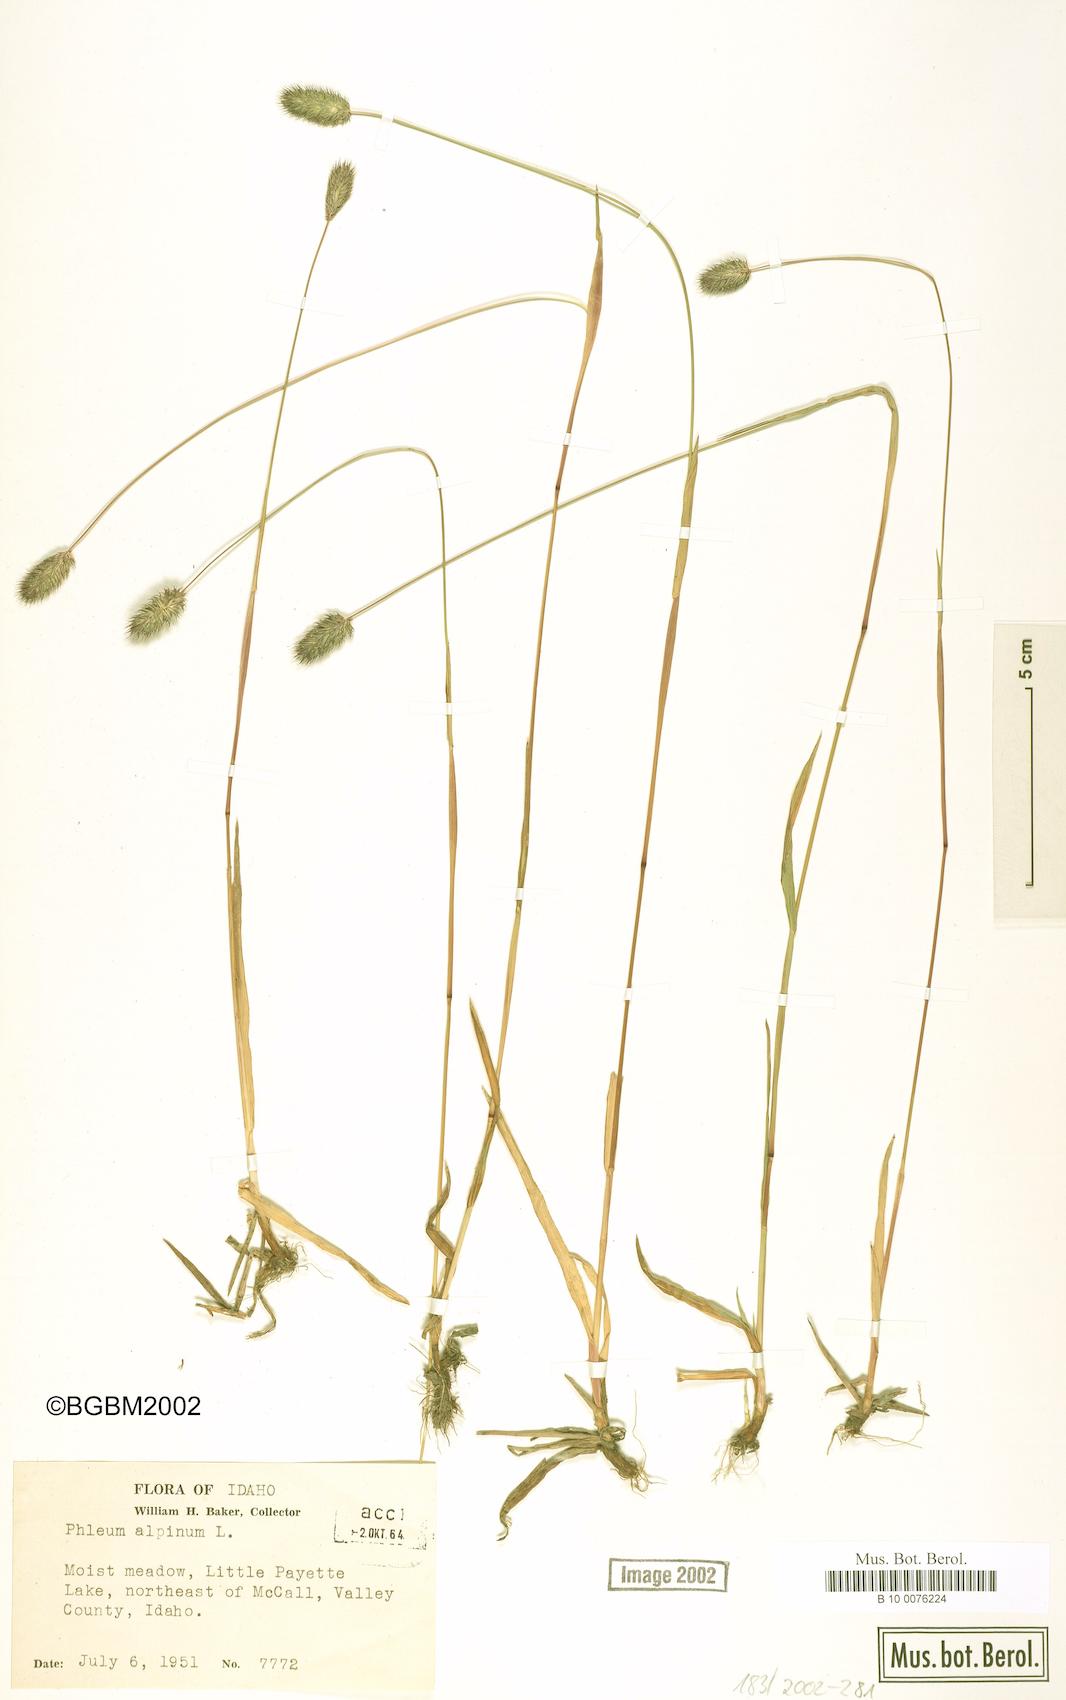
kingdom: Plantae
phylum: Tracheophyta
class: Liliopsida
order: Poales
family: Poaceae
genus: Phleum
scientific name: Phleum alpinum
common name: Alpine cat's-tail
